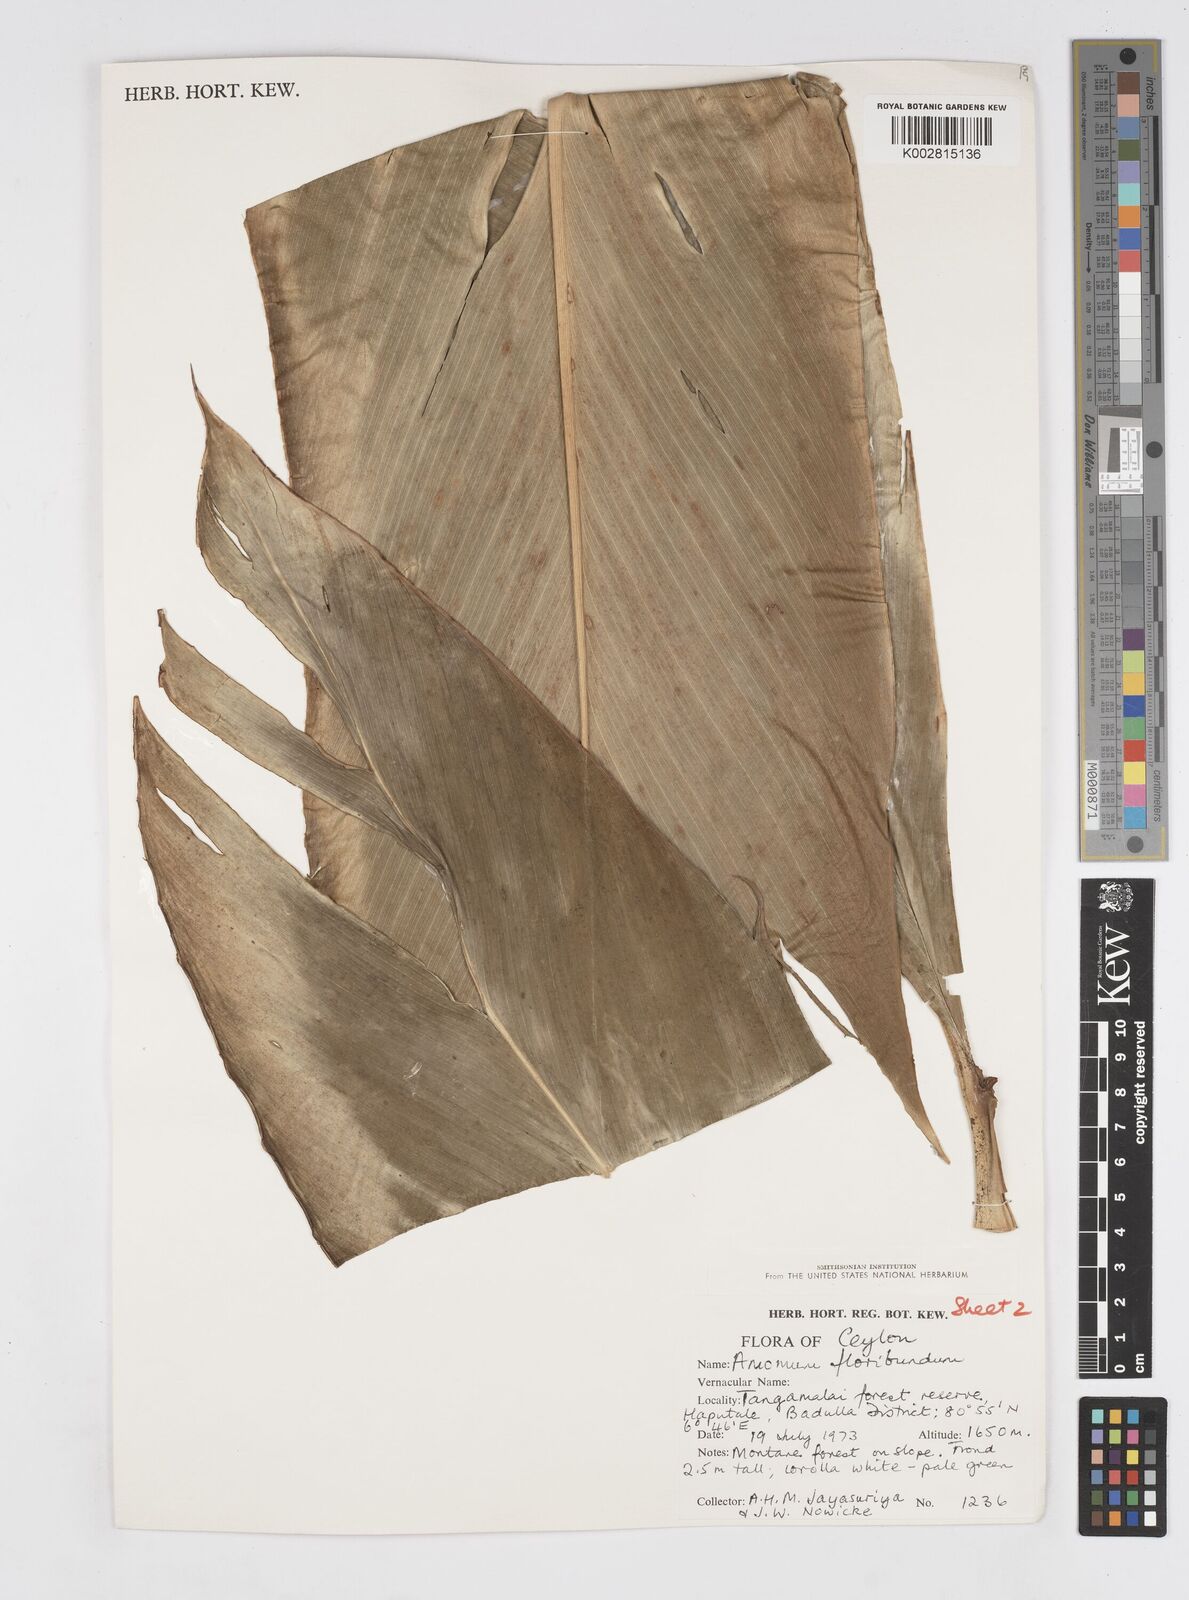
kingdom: Plantae
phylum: Tracheophyta
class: Liliopsida
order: Zingiberales
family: Zingiberaceae
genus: Alpinia
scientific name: Alpinia fax
